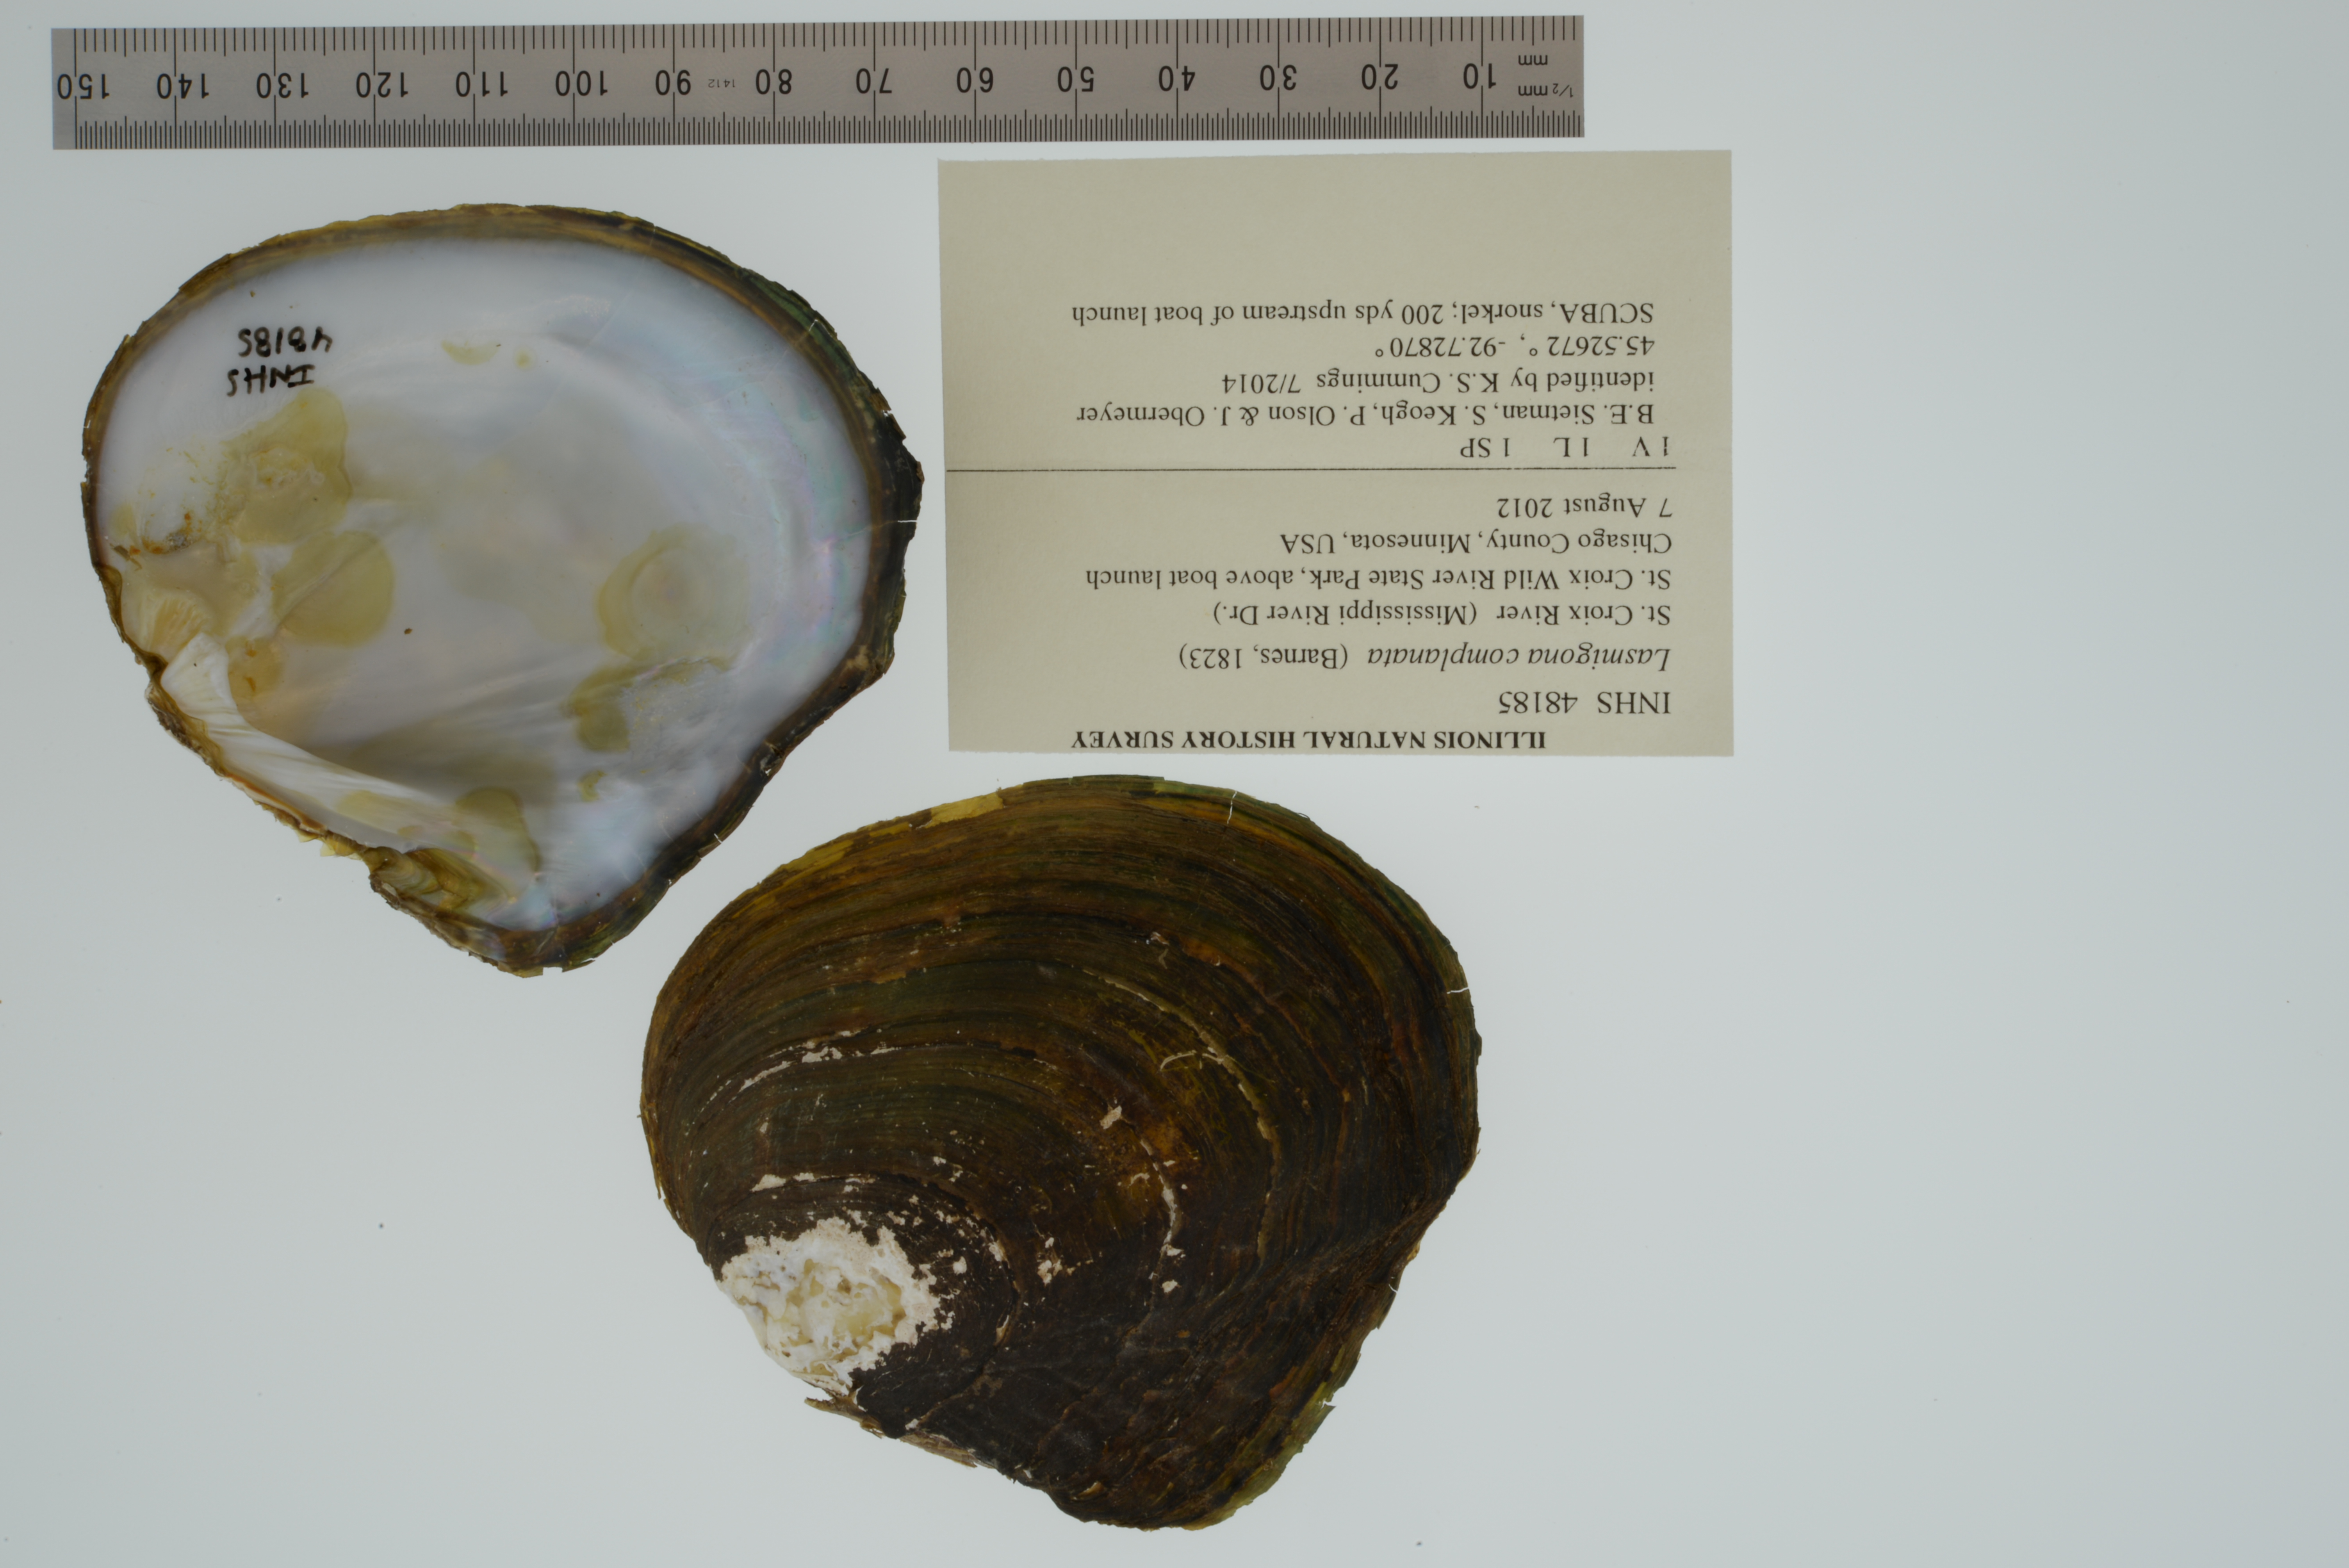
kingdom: Animalia
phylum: Mollusca
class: Bivalvia
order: Unionida
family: Unionidae
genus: Lasmigona
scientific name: Lasmigona complanata
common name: White heelsplitter
